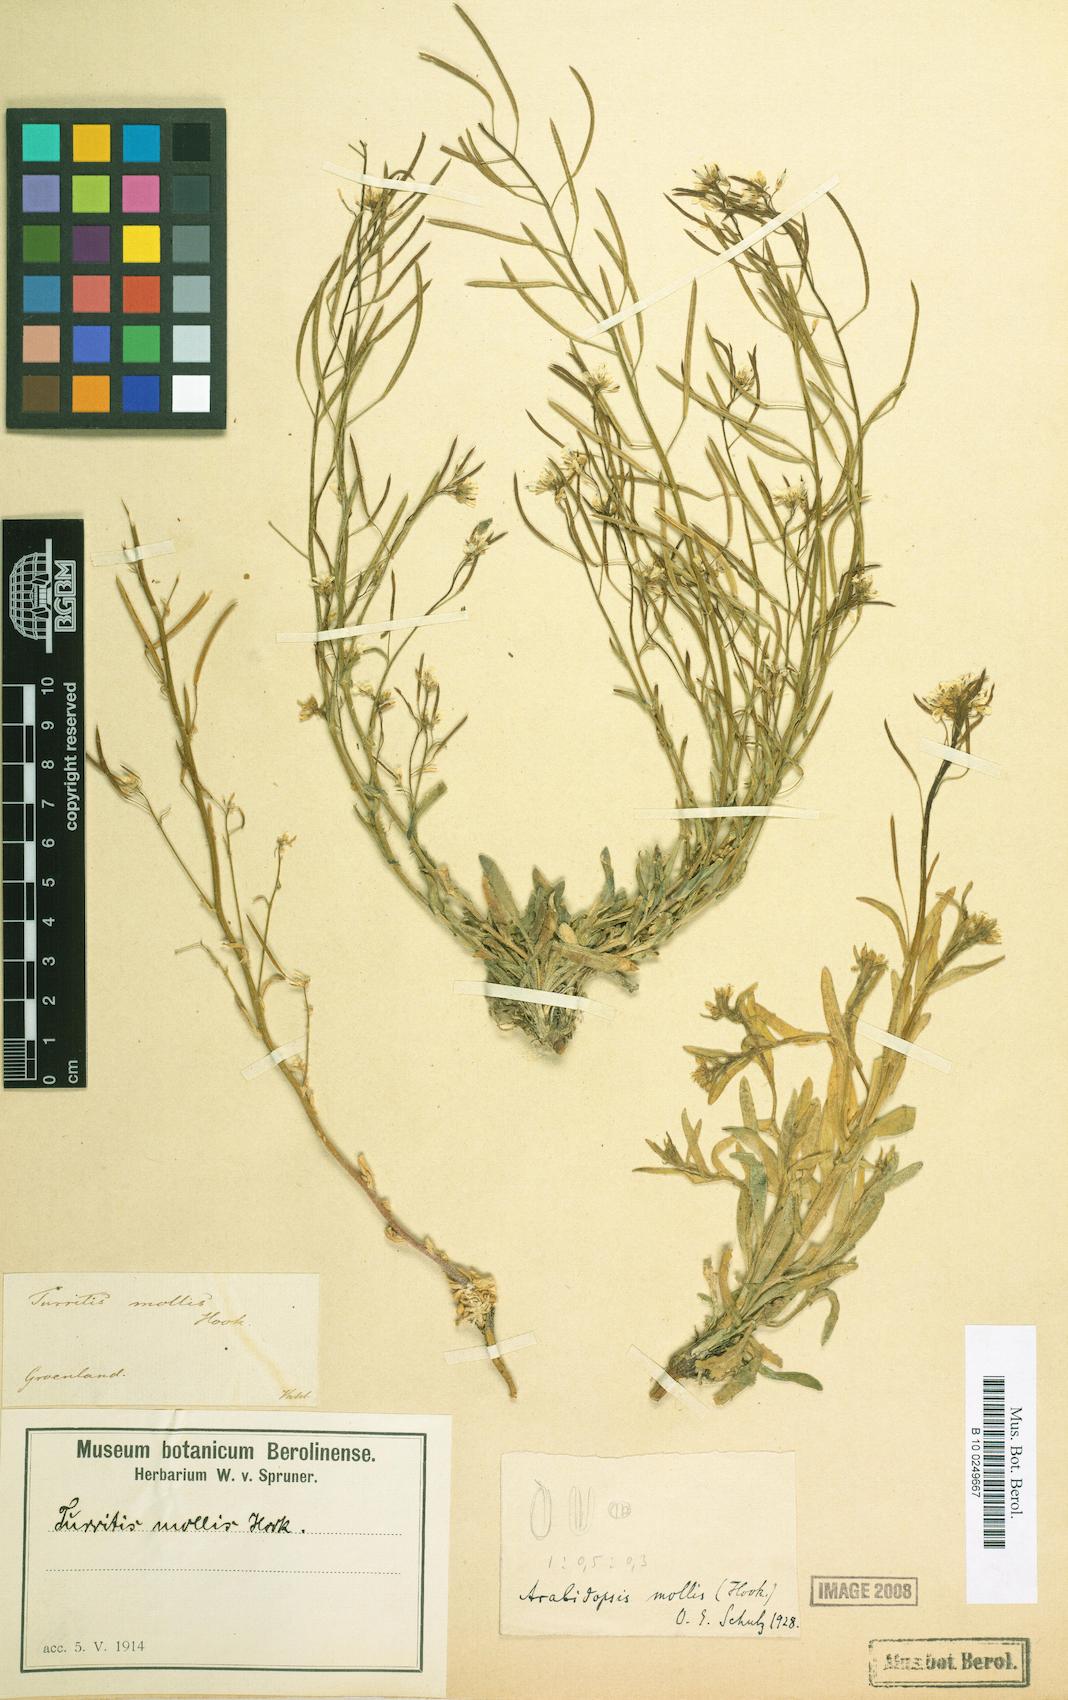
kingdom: Plantae
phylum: Tracheophyta
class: Magnoliopsida
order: Brassicales
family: Brassicaceae
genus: Crucihimalaya
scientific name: Crucihimalaya bursifolia
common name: Soft fissurewort
